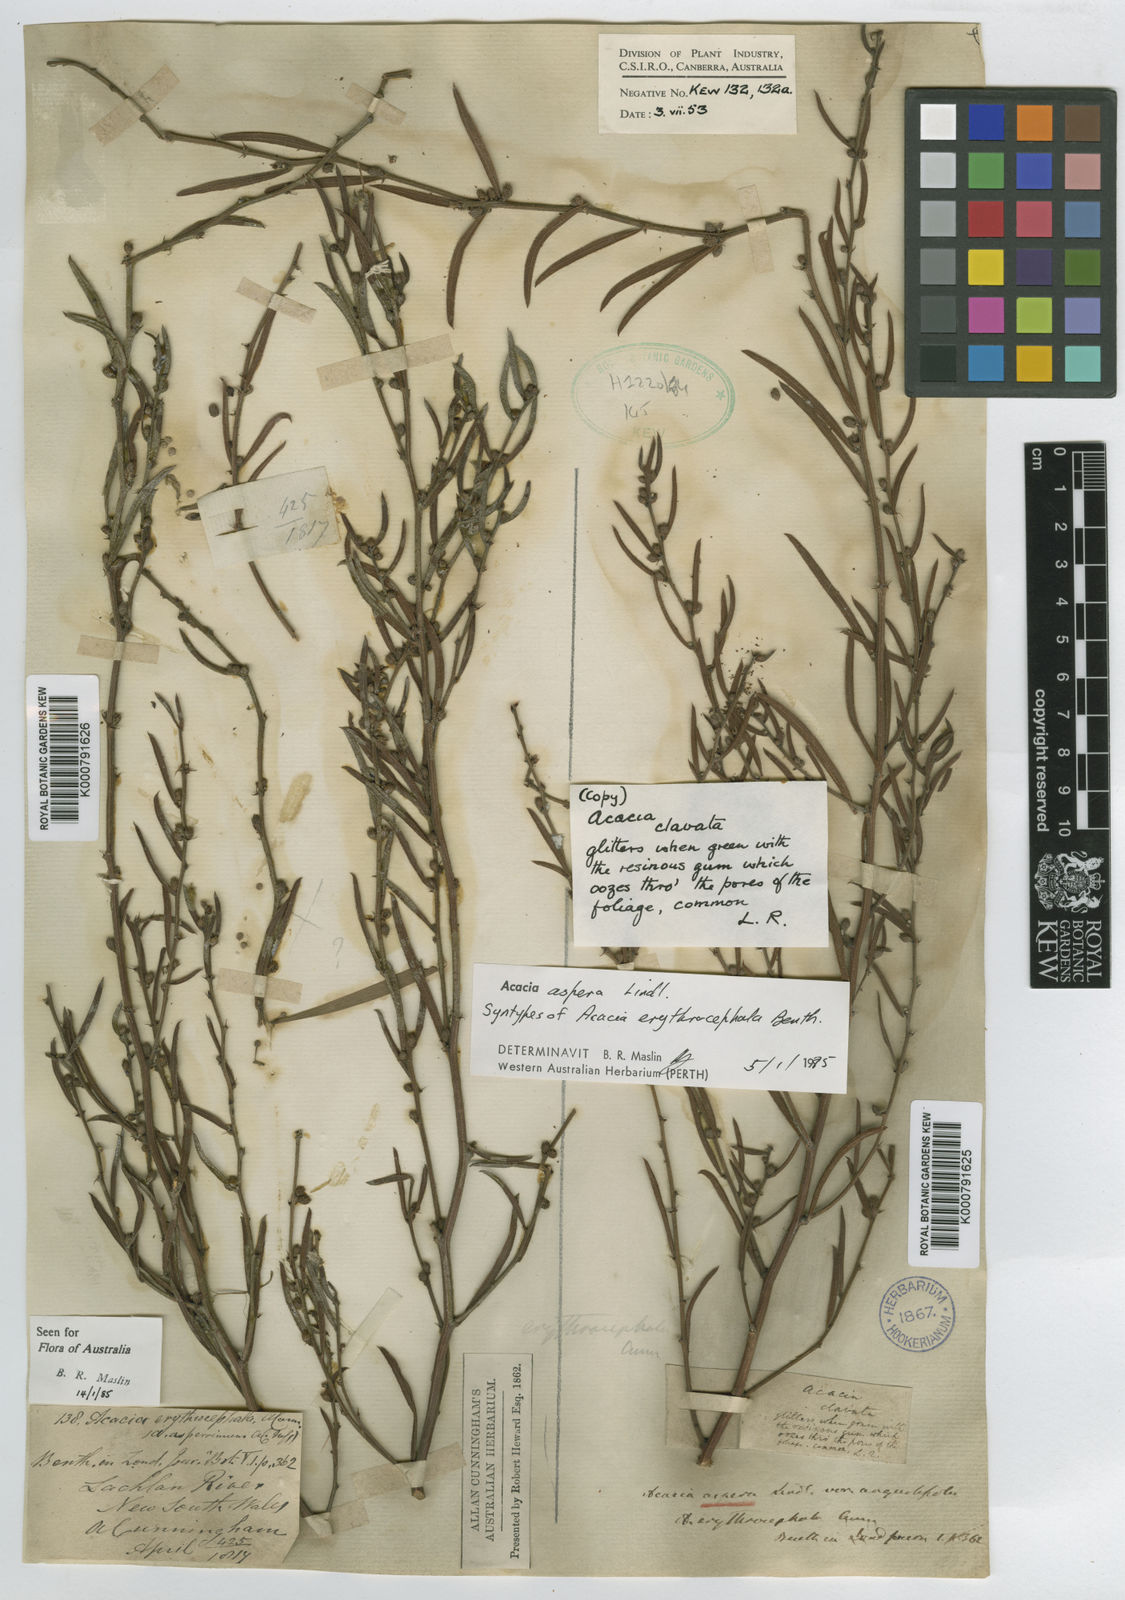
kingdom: Plantae
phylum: Tracheophyta
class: Magnoliopsida
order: Fabales
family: Fabaceae
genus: Acacia
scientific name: Acacia aspera
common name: Rough wattle
